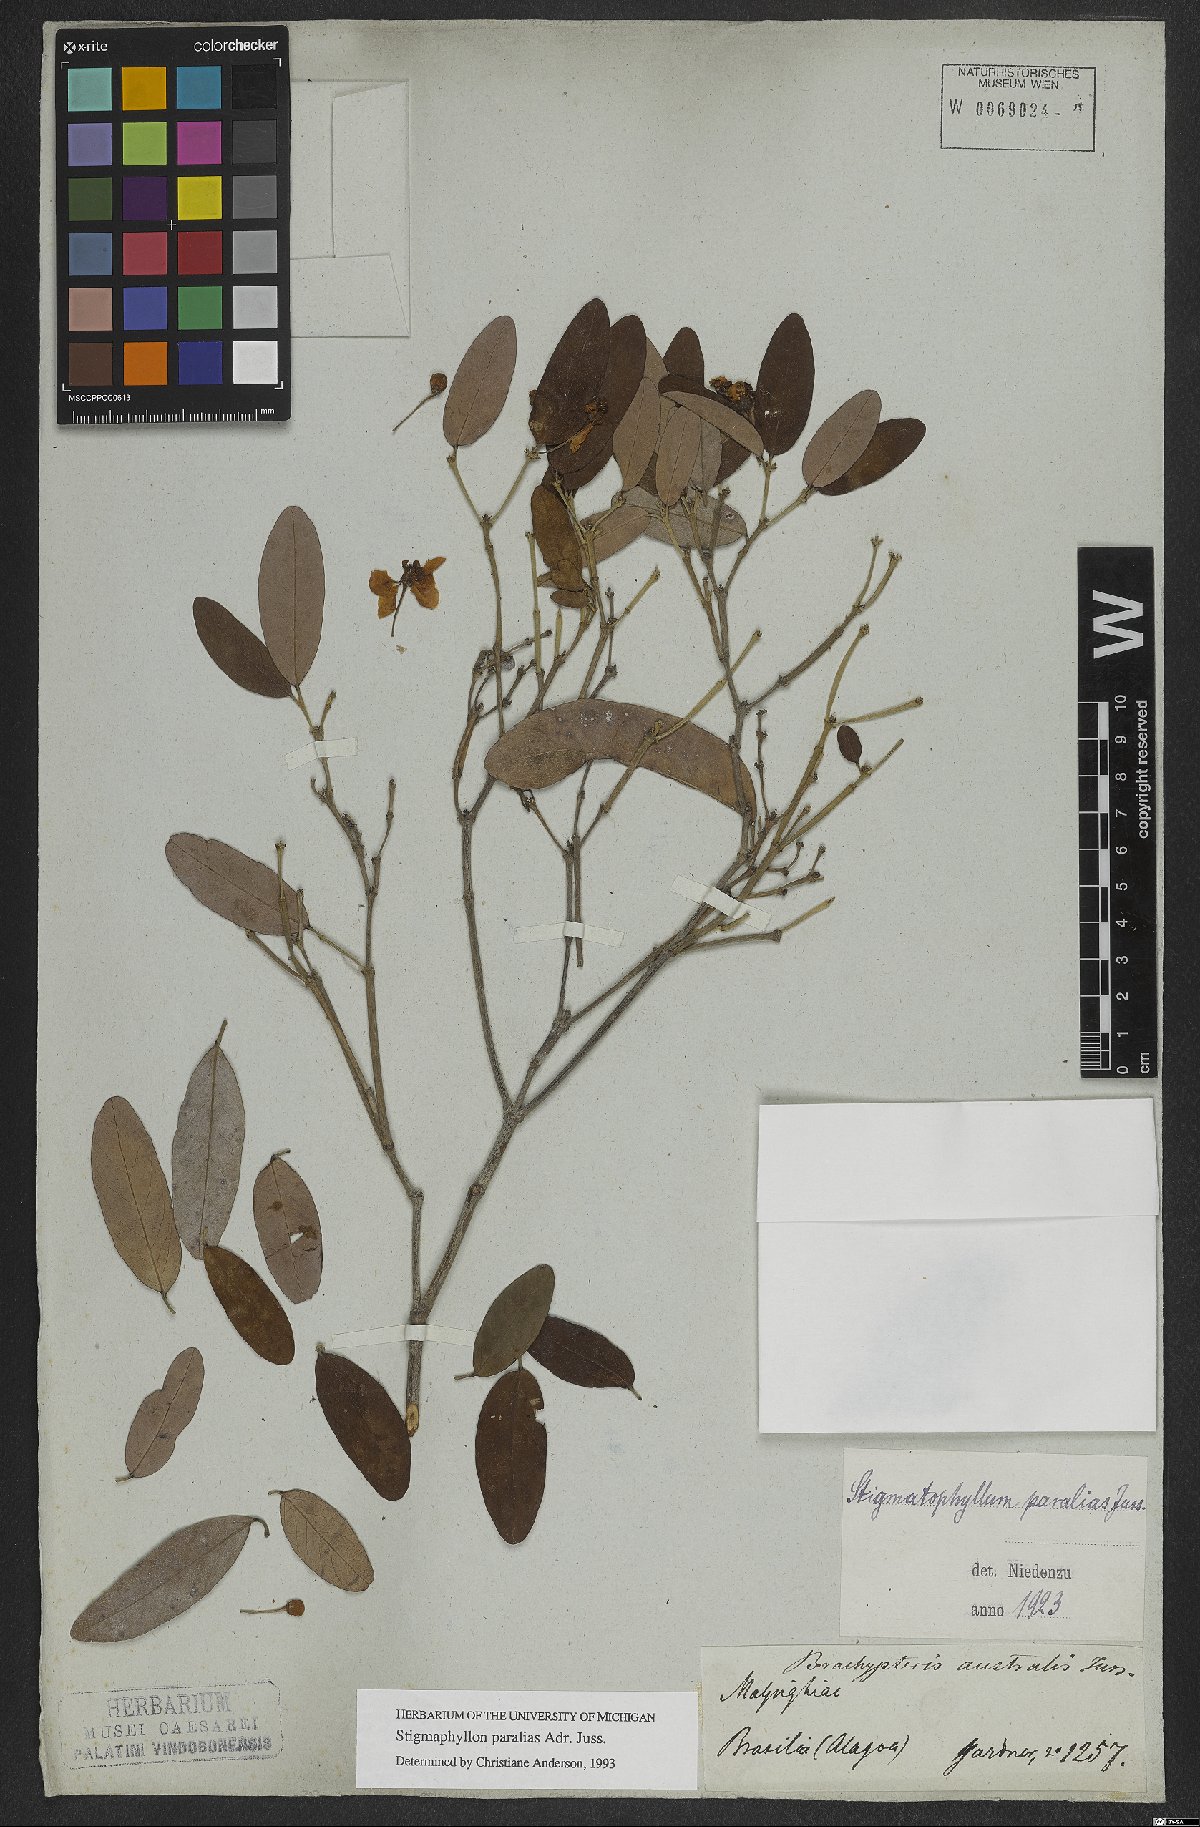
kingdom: Plantae
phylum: Tracheophyta
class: Magnoliopsida
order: Malpighiales
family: Malpighiaceae
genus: Stigmaphyllon
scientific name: Stigmaphyllon paralias
